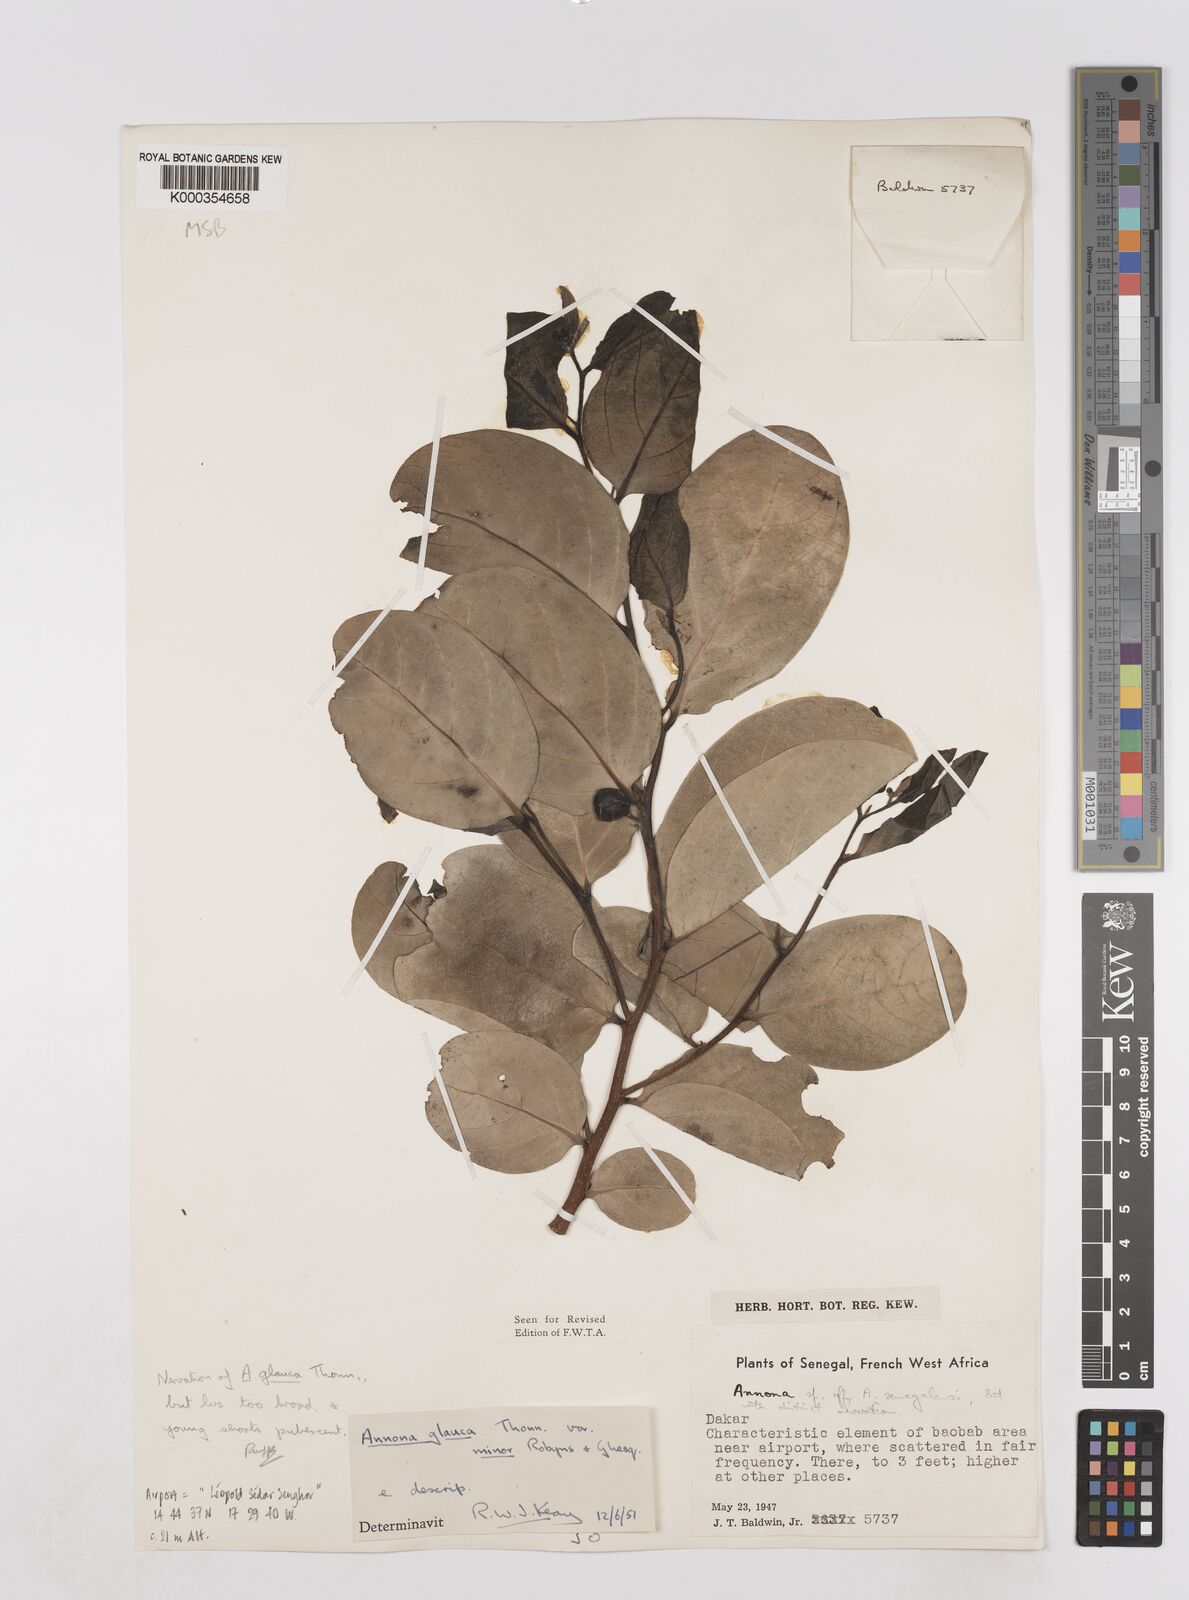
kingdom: Plantae
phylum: Tracheophyta
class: Magnoliopsida
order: Magnoliales
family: Annonaceae
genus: Annona
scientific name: Annona glauca
